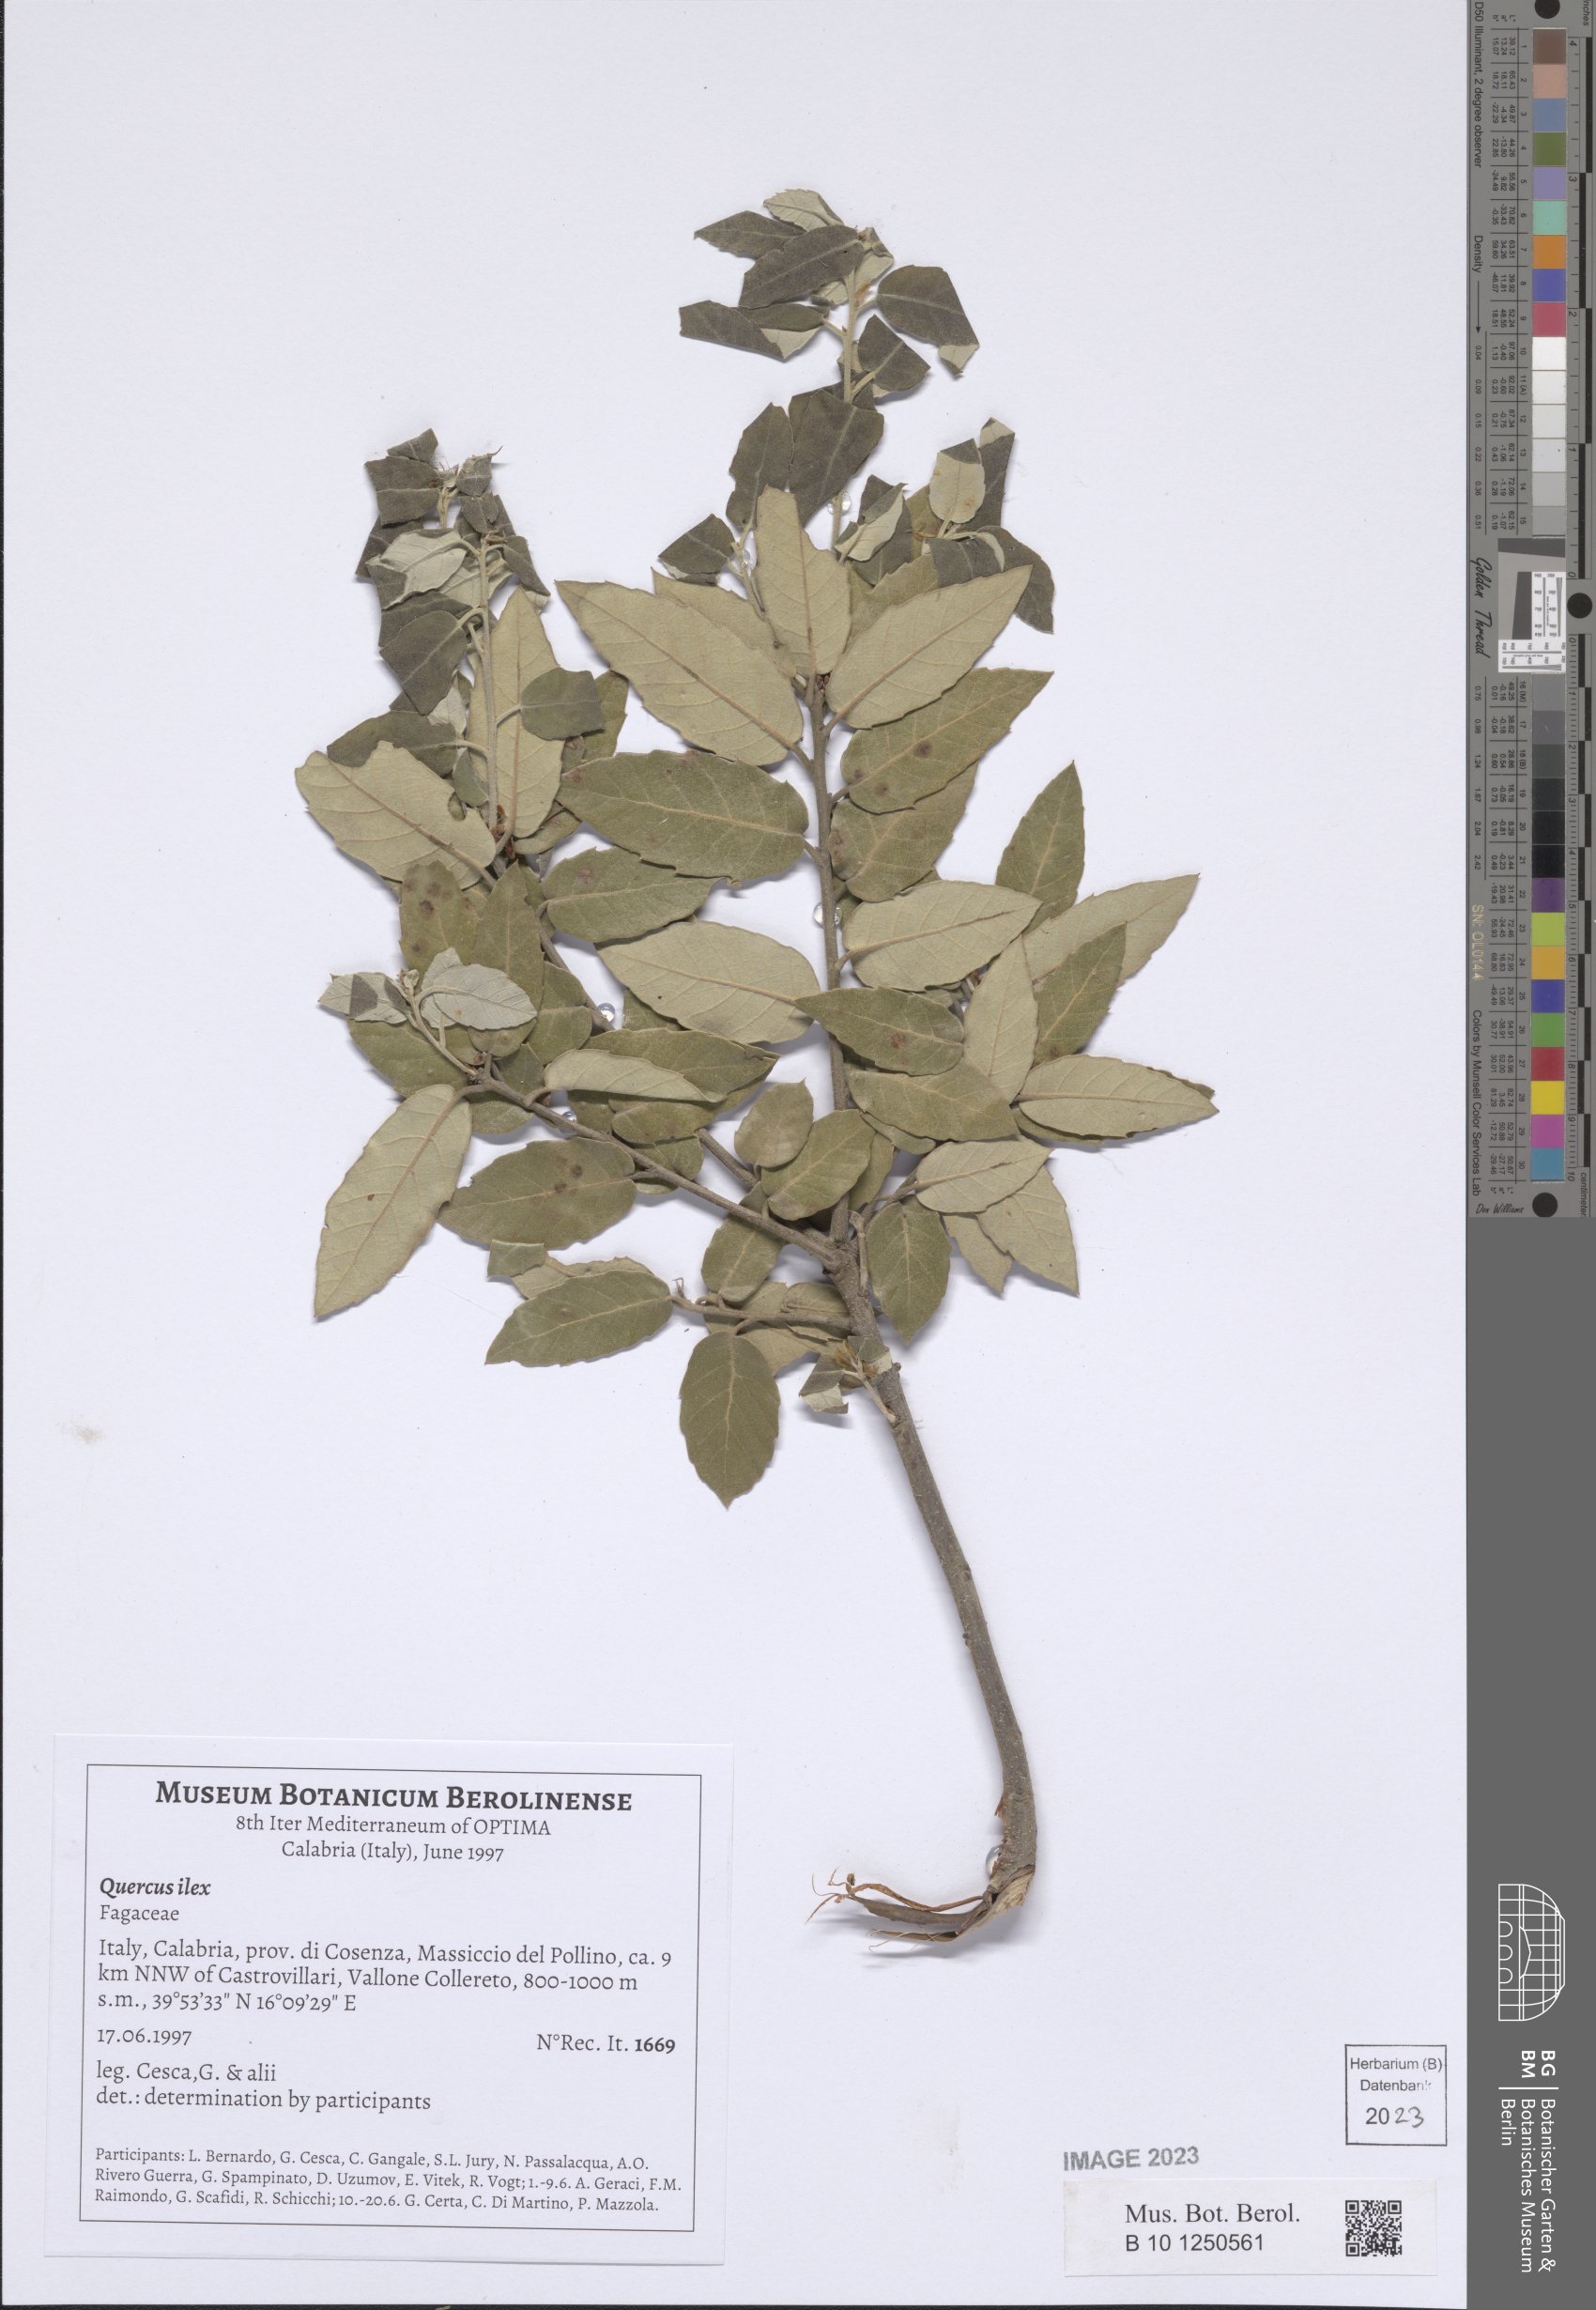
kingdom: Plantae
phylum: Tracheophyta
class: Magnoliopsida
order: Fagales
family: Fagaceae
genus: Quercus
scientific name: Quercus ilex
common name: Evergreen oak
